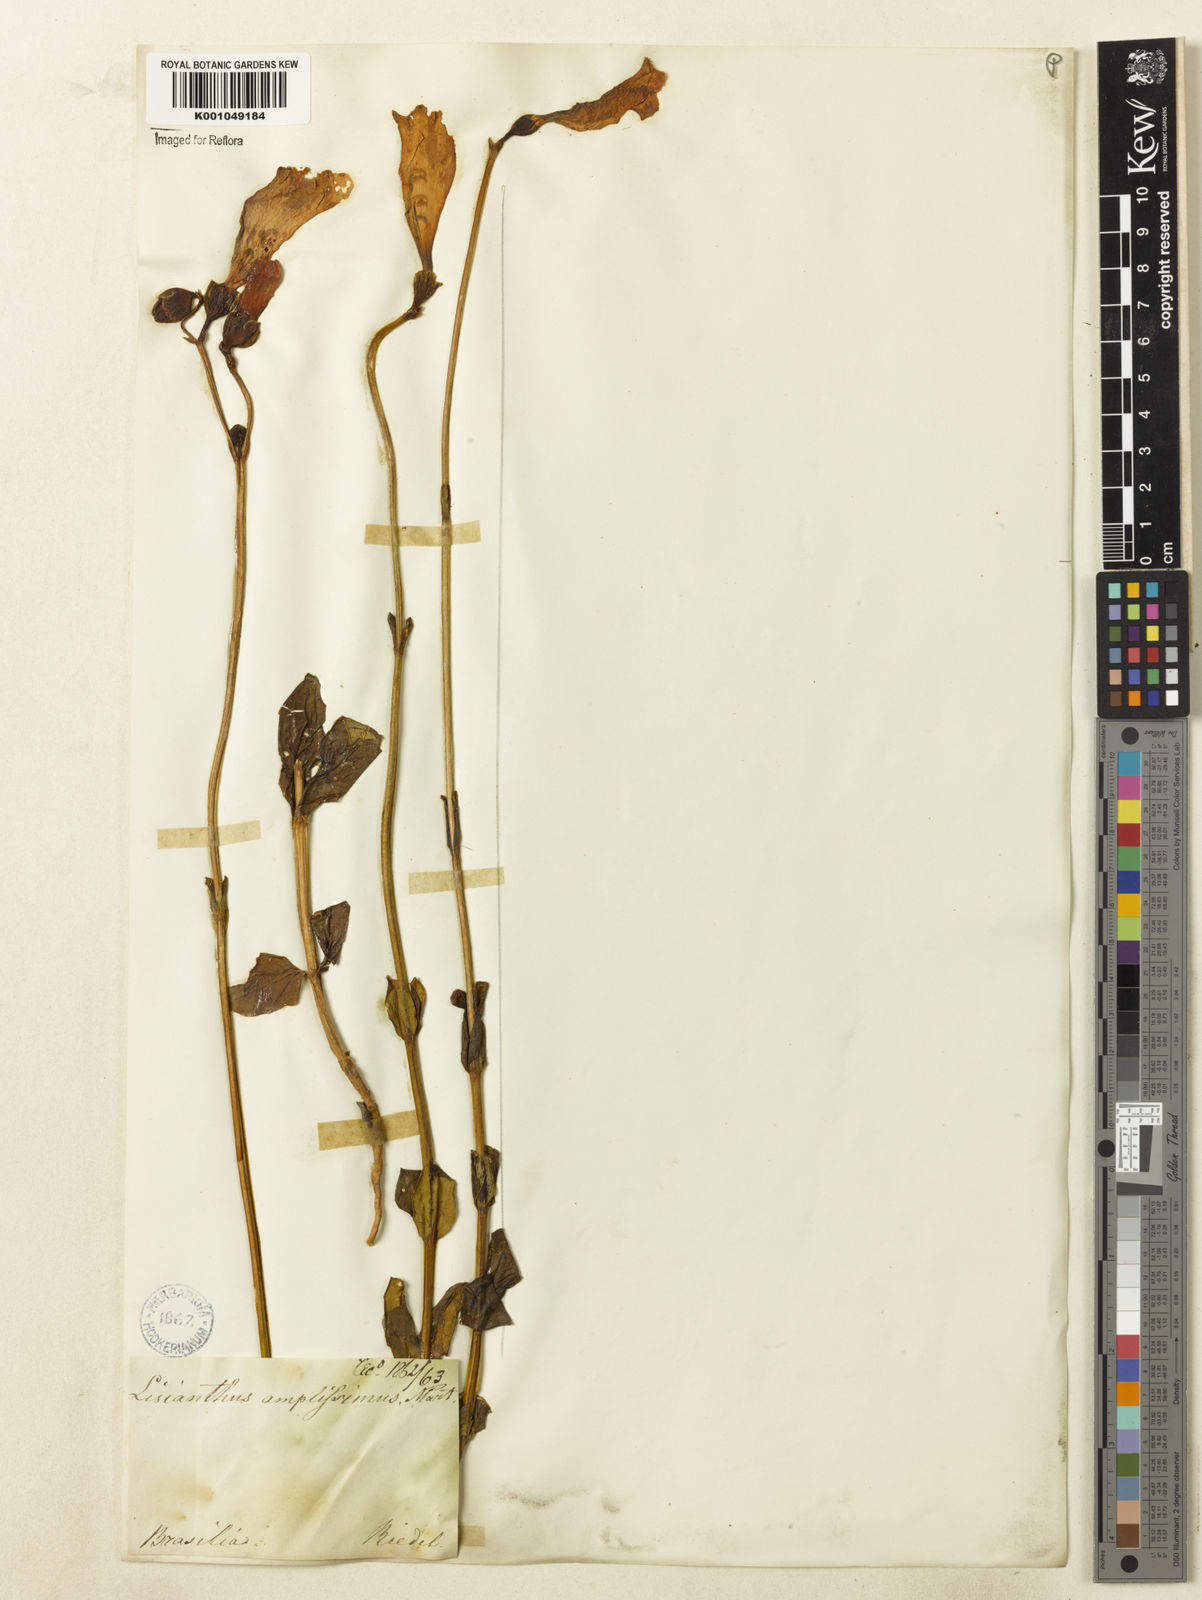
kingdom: Plantae
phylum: Tracheophyta
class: Magnoliopsida
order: Gentianales
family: Gentianaceae
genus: Calolisianthus
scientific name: Calolisianthus amplissimus
